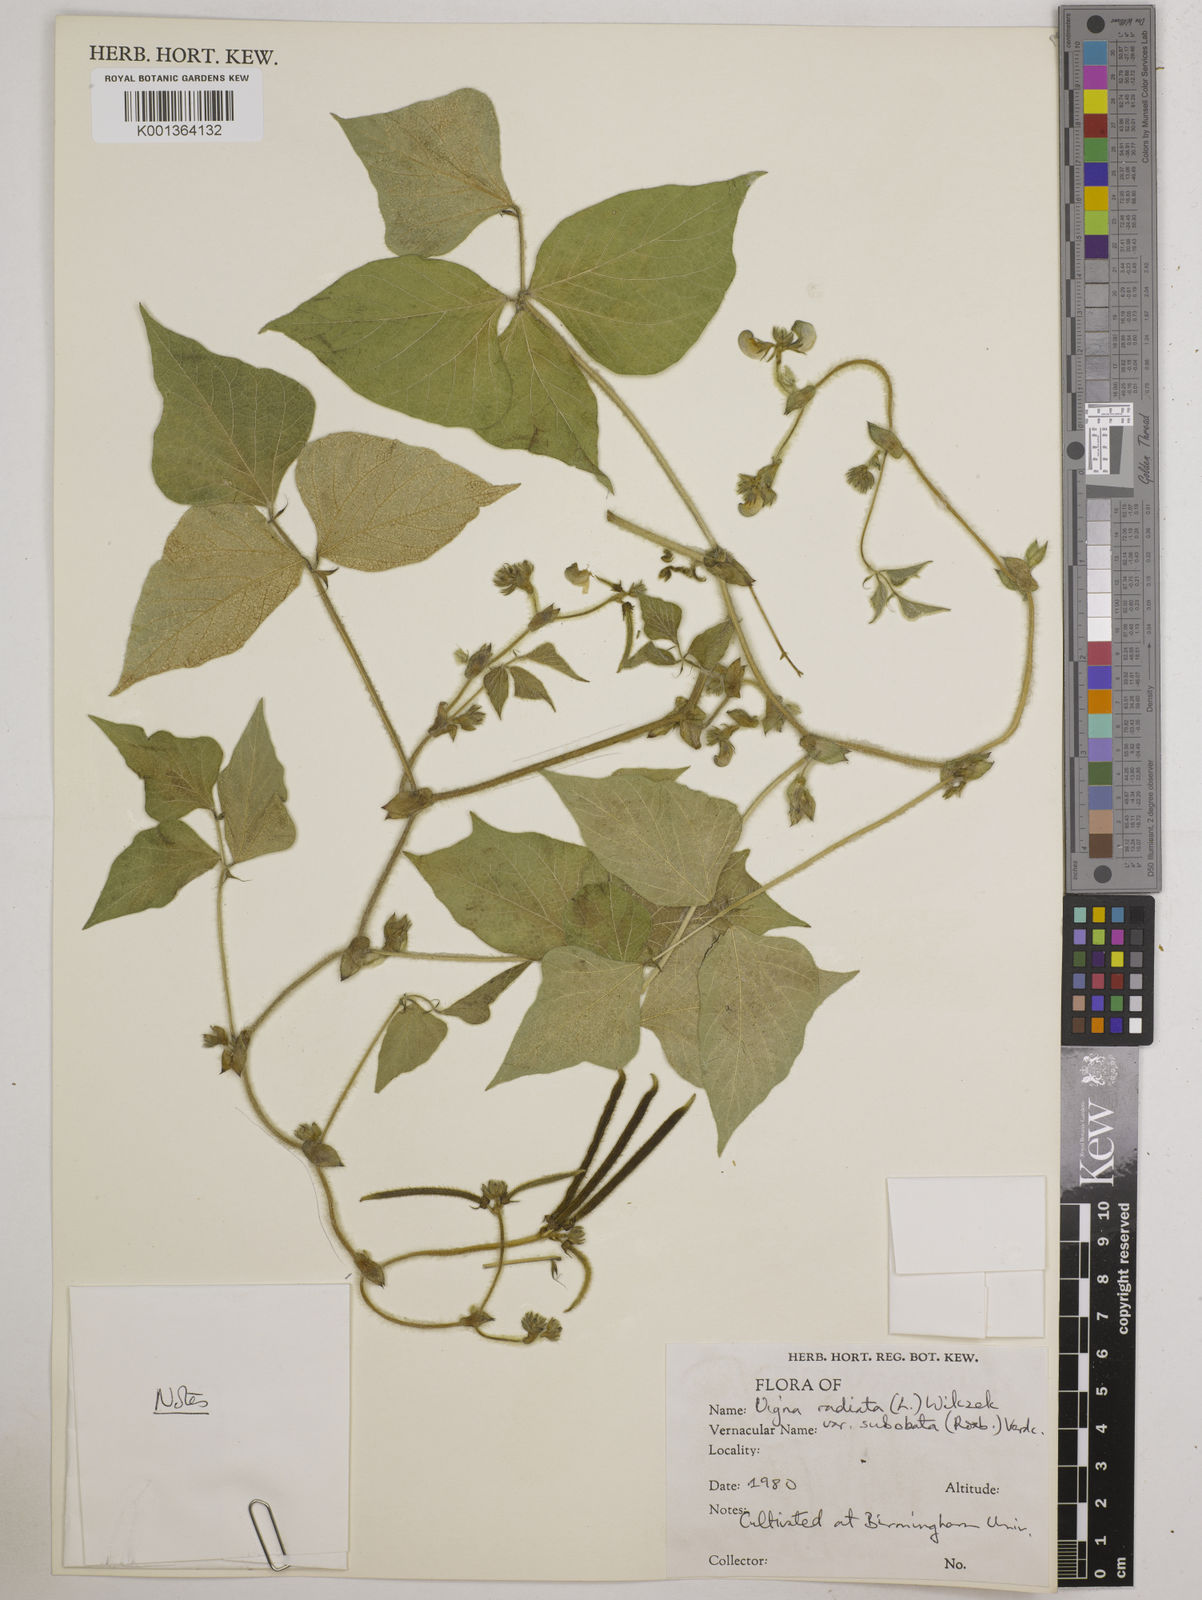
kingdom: Plantae
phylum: Tracheophyta
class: Magnoliopsida
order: Fabales
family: Fabaceae
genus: Vigna
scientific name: Vigna radiata
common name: Mung-bean
